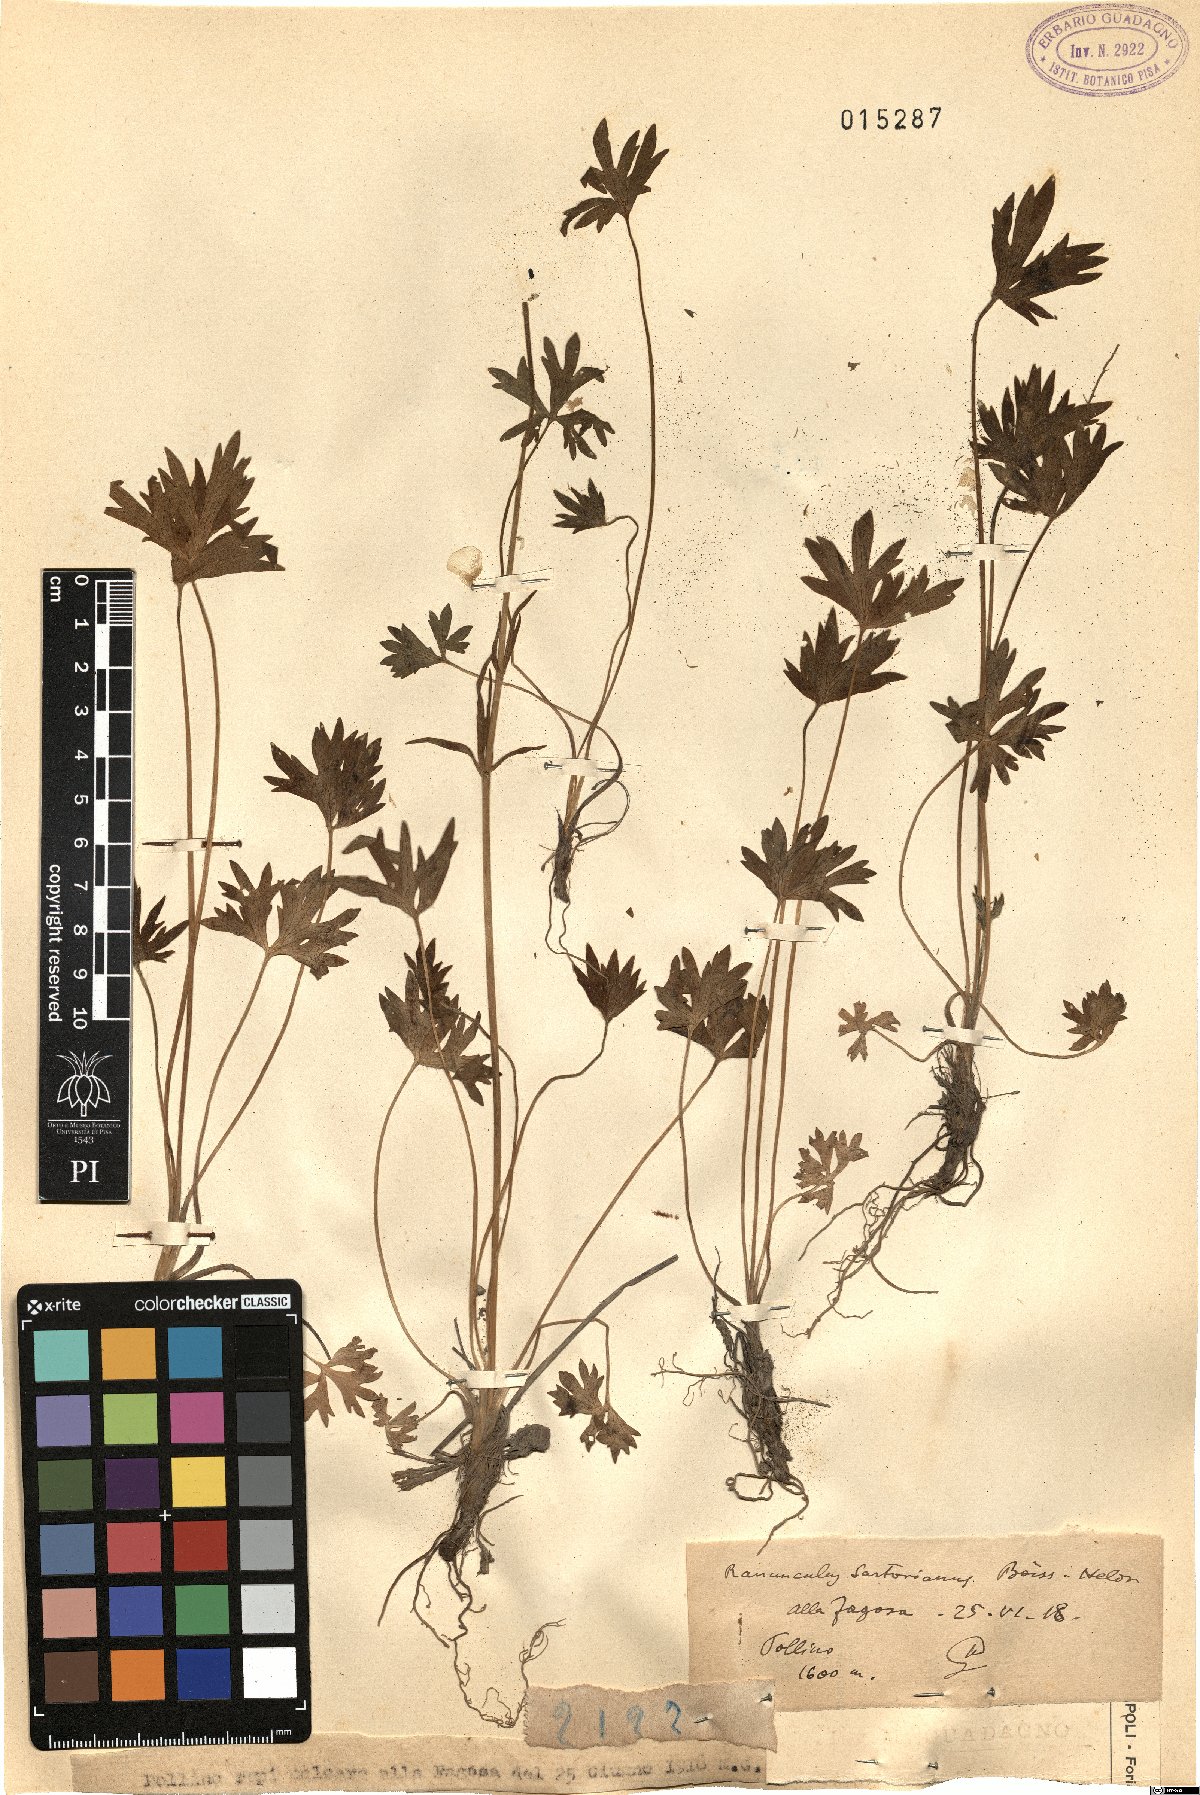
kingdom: Plantae
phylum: Tracheophyta
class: Magnoliopsida
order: Ranunculales
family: Ranunculaceae
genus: Ranunculus
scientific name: Ranunculus sartorianus
